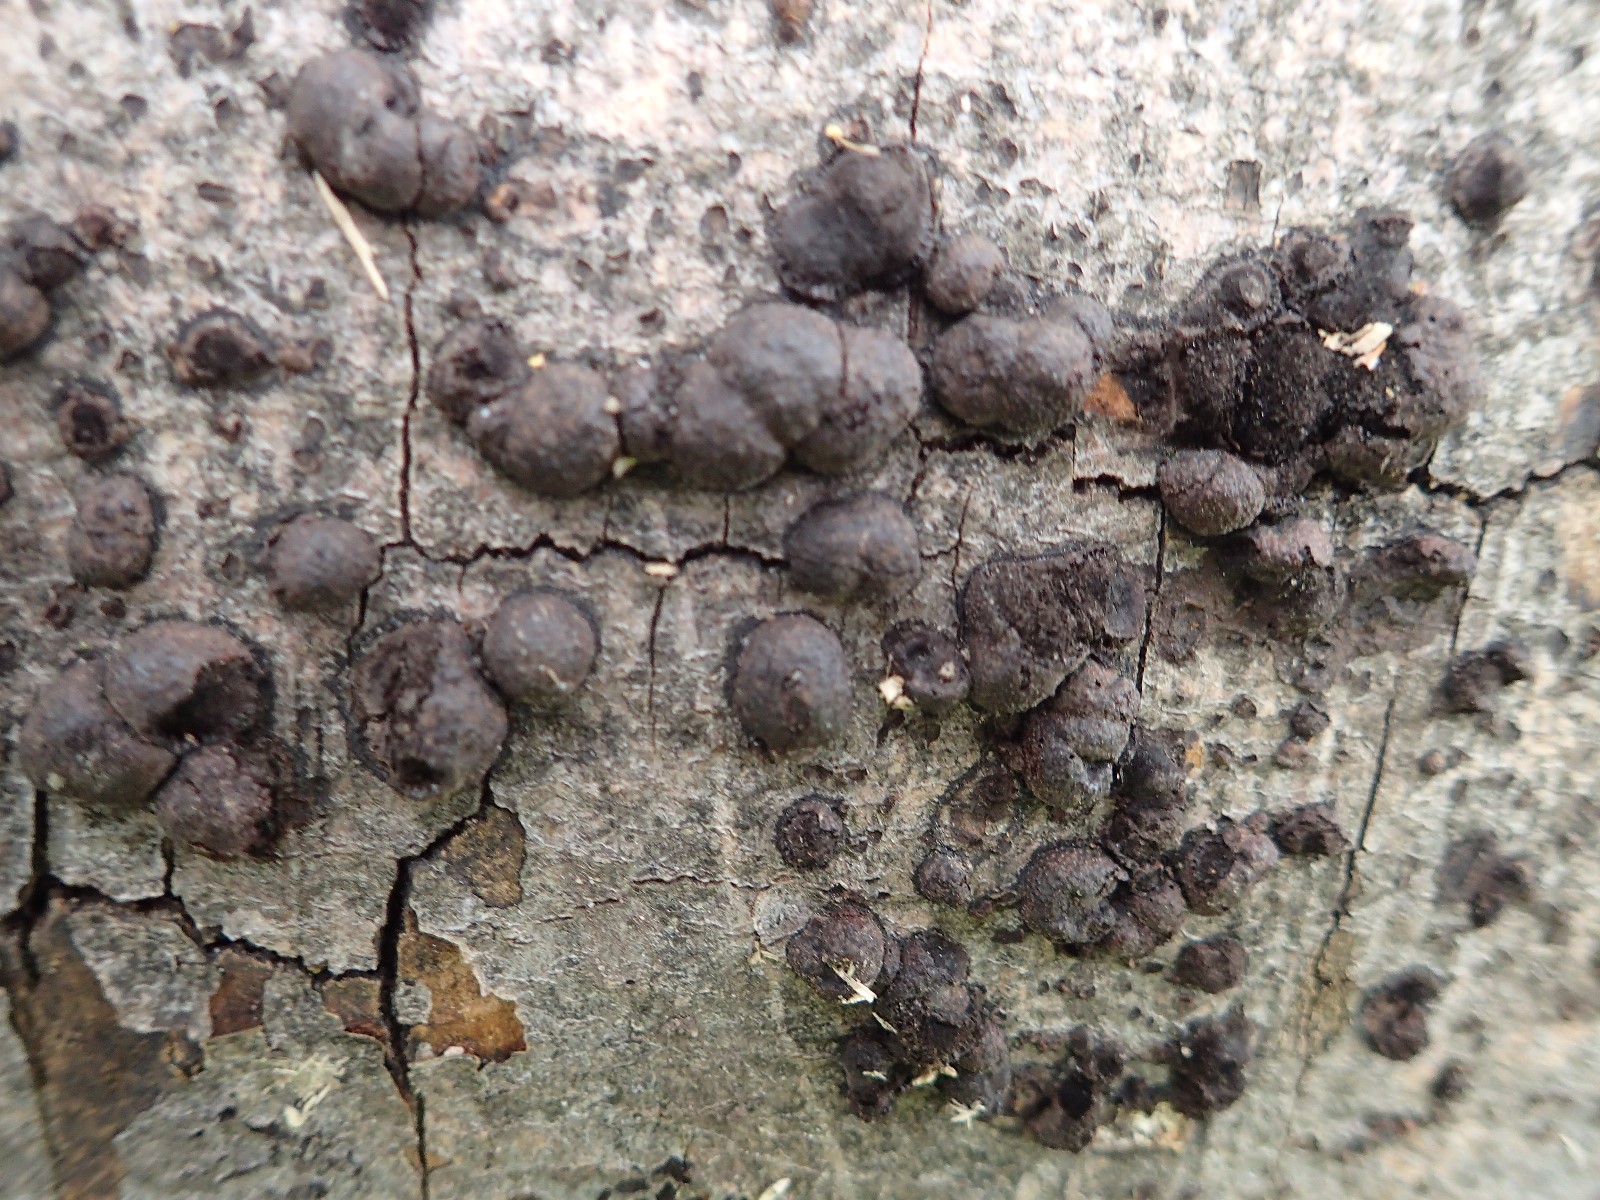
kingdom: Fungi
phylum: Ascomycota
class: Sordariomycetes
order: Xylariales
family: Hypoxylaceae
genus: Hypoxylon
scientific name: Hypoxylon fragiforme
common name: kuljordbær
